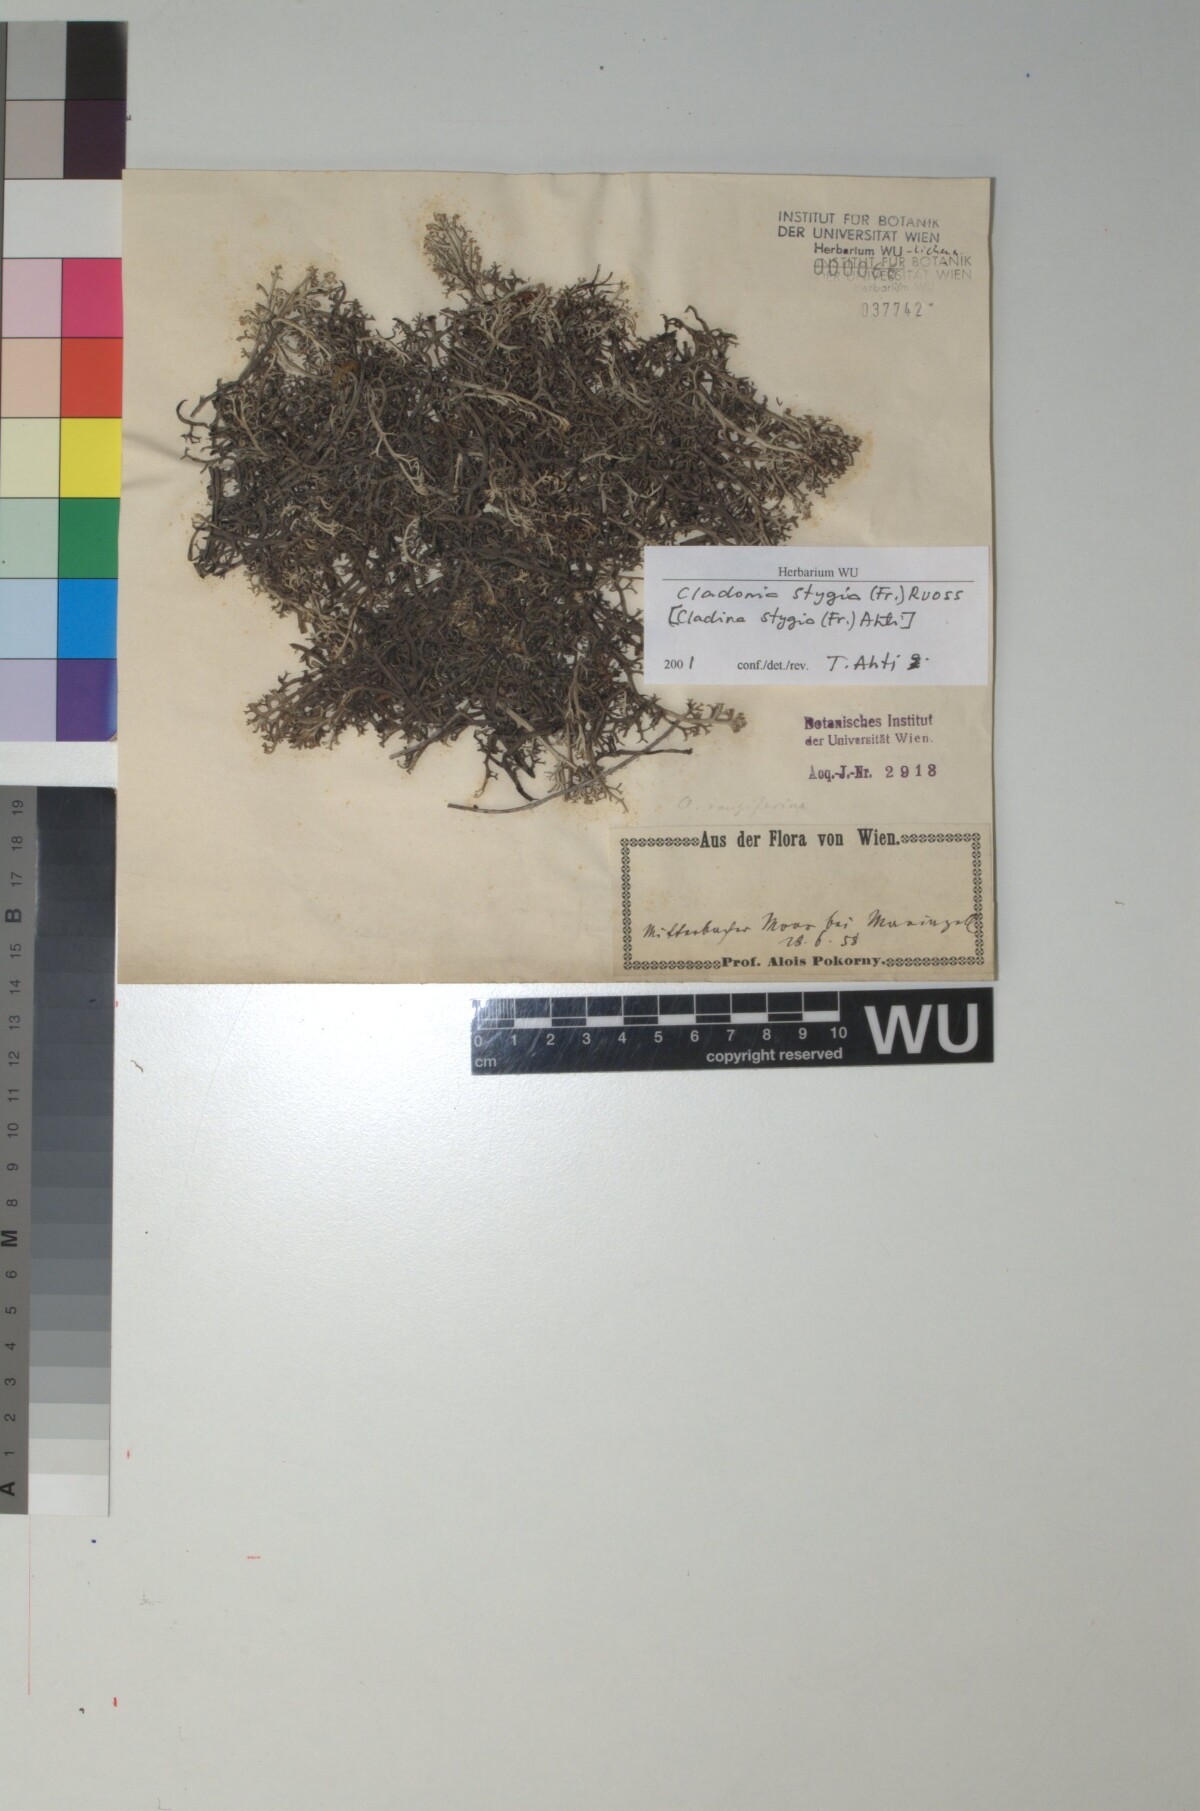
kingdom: Fungi
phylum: Ascomycota
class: Lecanoromycetes
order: Lecanorales
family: Cladoniaceae
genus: Cladonia
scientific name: Cladonia stygia
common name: Black-footed reindeer lichen
